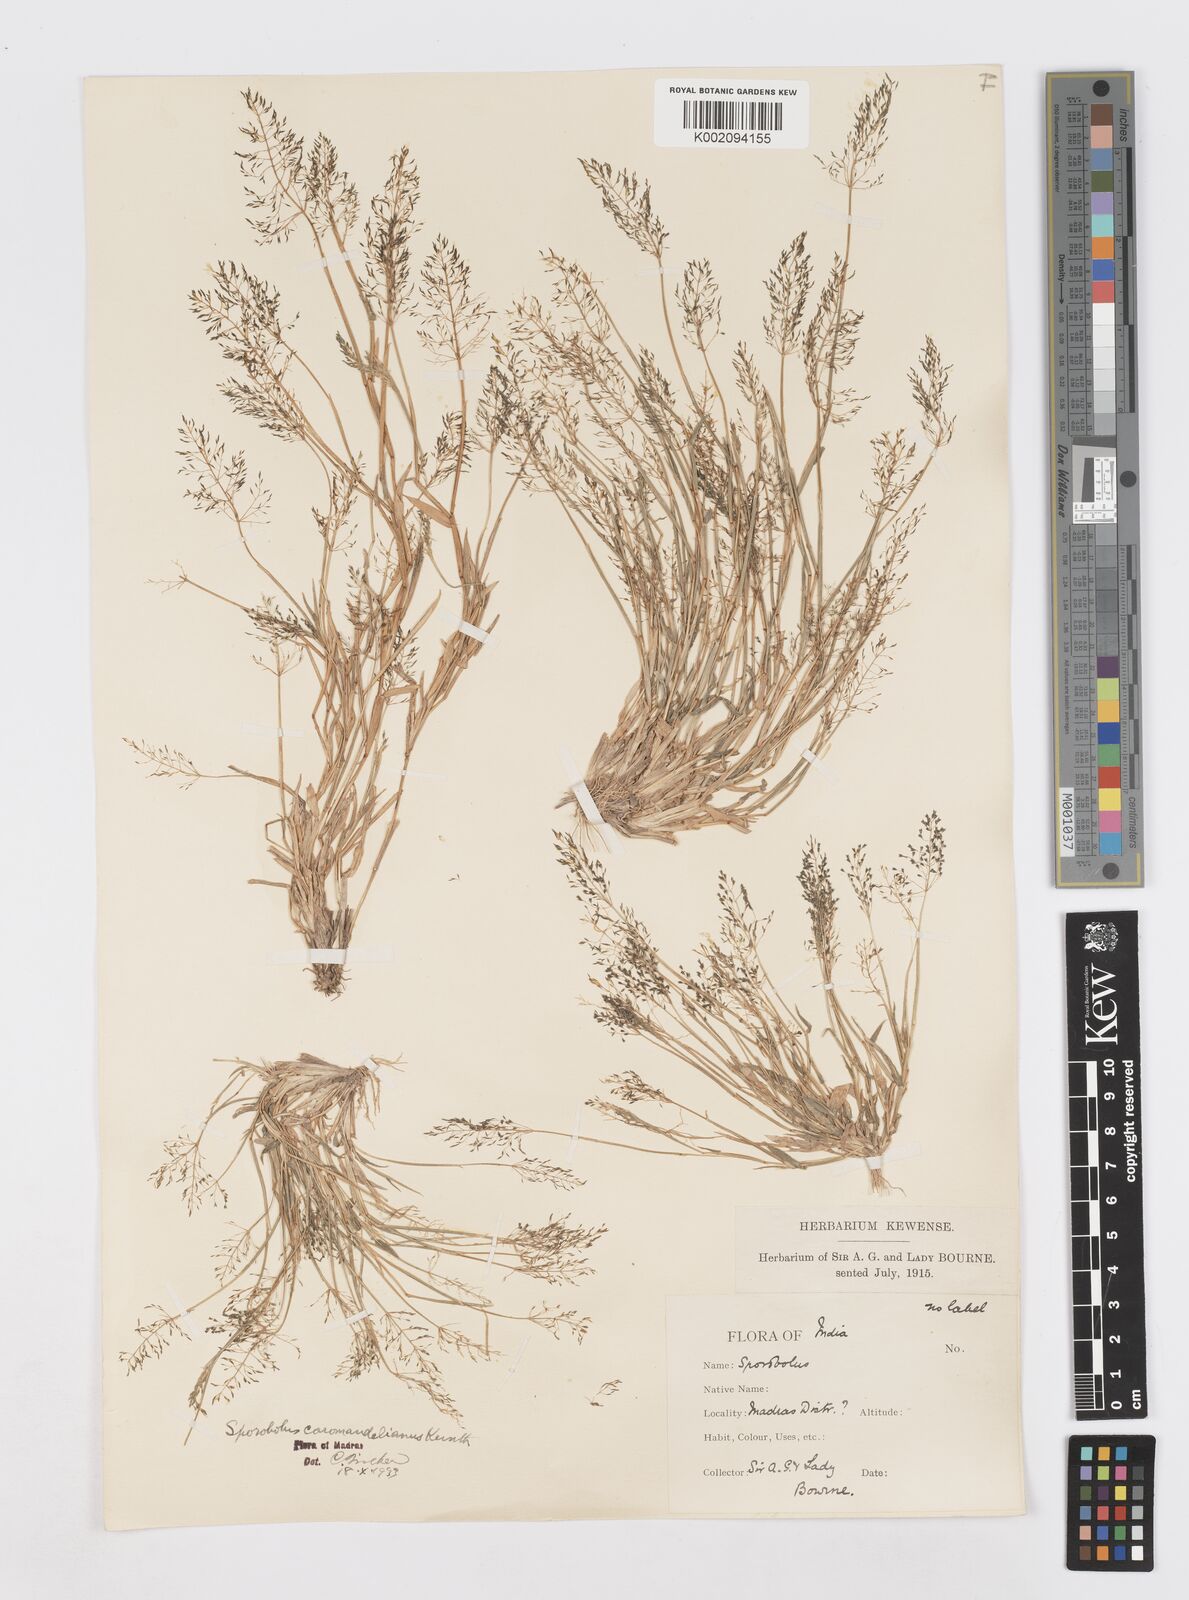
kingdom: Plantae
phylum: Tracheophyta
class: Liliopsida
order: Poales
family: Poaceae
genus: Sporobolus
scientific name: Sporobolus coromandelianus
